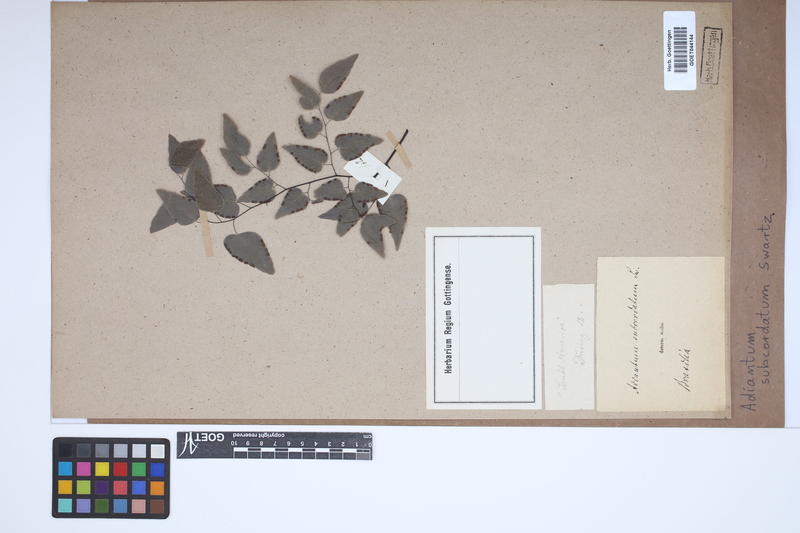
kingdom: Plantae
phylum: Tracheophyta
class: Polypodiopsida
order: Polypodiales
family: Pteridaceae
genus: Adiantum
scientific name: Adiantum subcordatum
